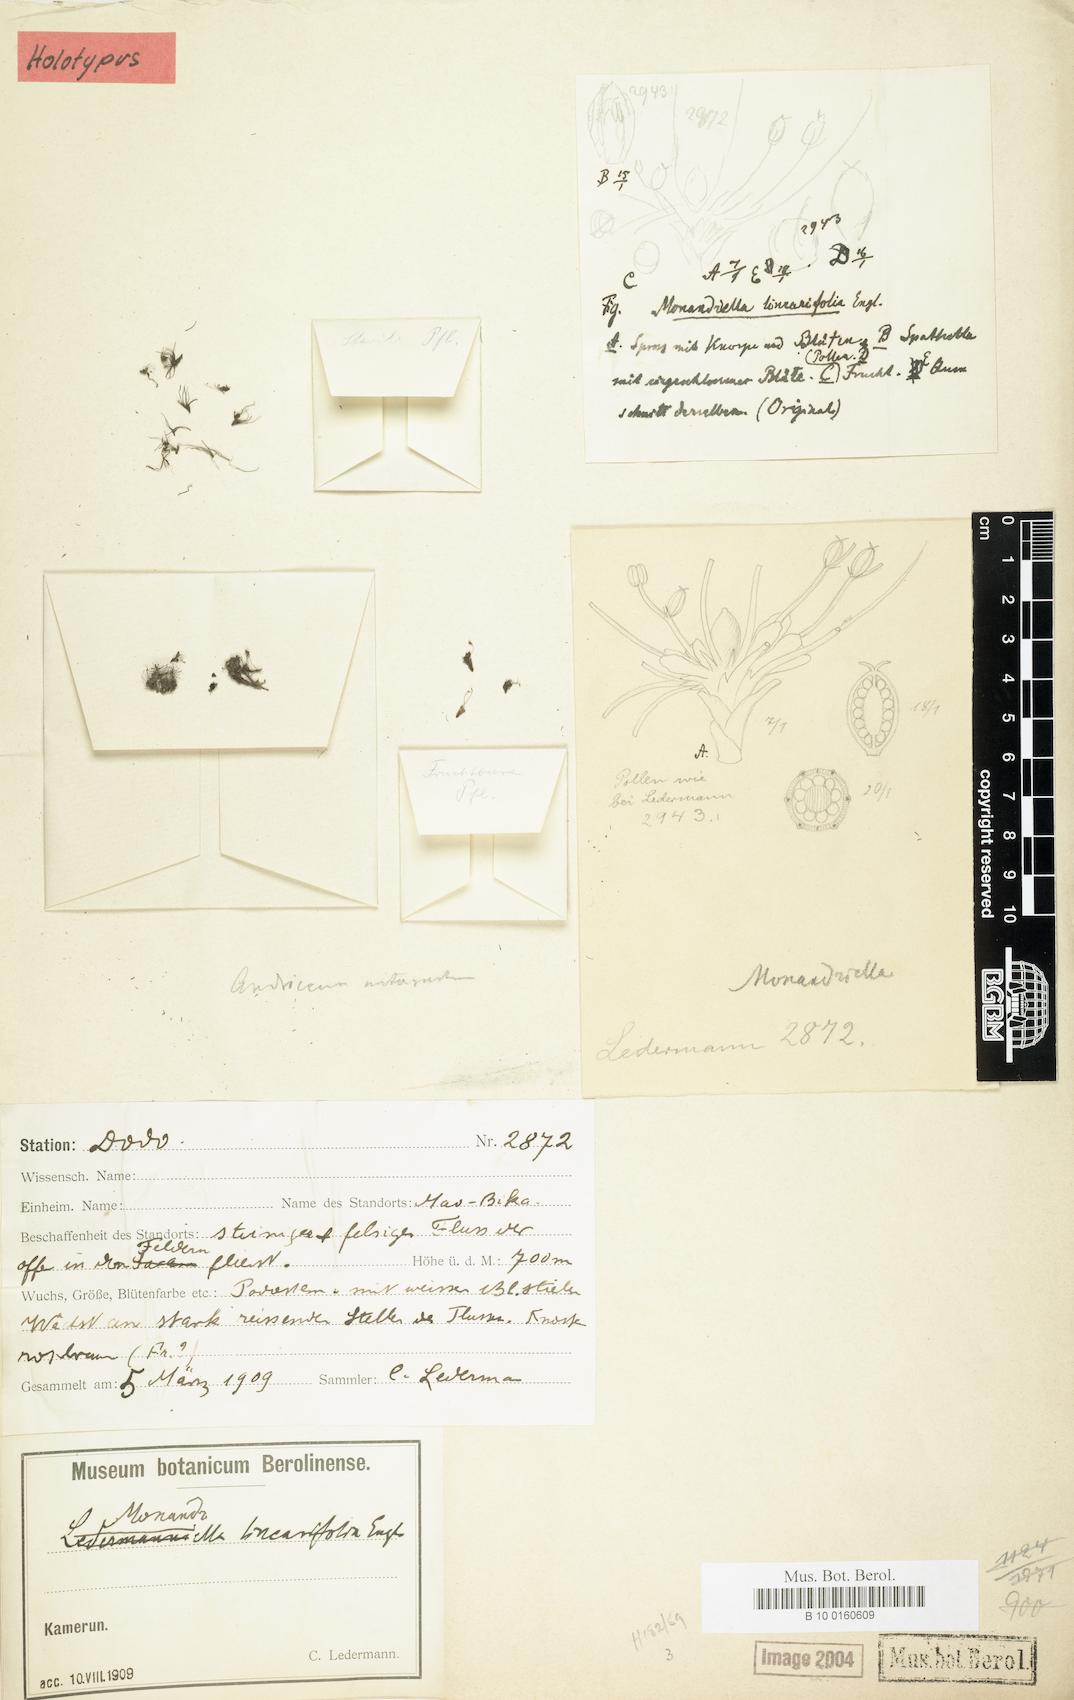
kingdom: Plantae
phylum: Tracheophyta
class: Magnoliopsida
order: Malpighiales
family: Podostemaceae
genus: Ledermanniella
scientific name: Ledermanniella monandra
